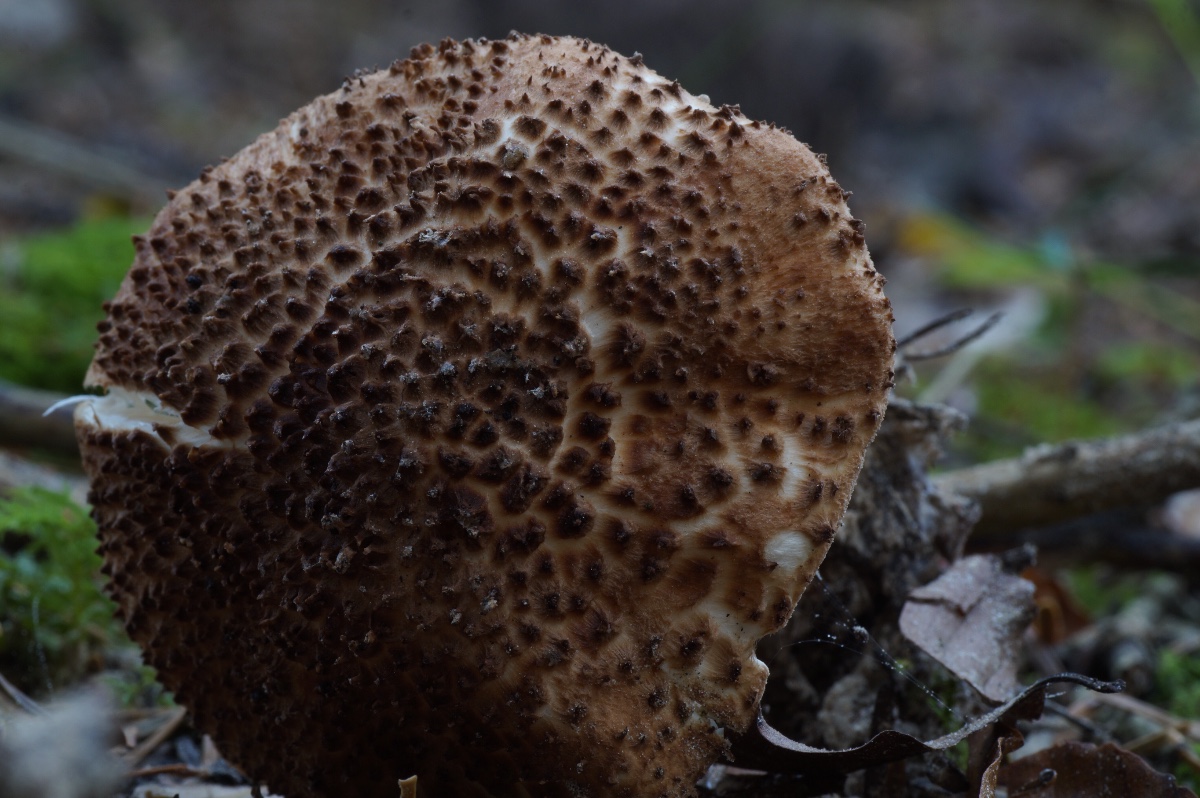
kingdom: Fungi
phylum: Basidiomycota
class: Agaricomycetes
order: Agaricales
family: Agaricaceae
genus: Echinoderma
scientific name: Echinoderma asperum
